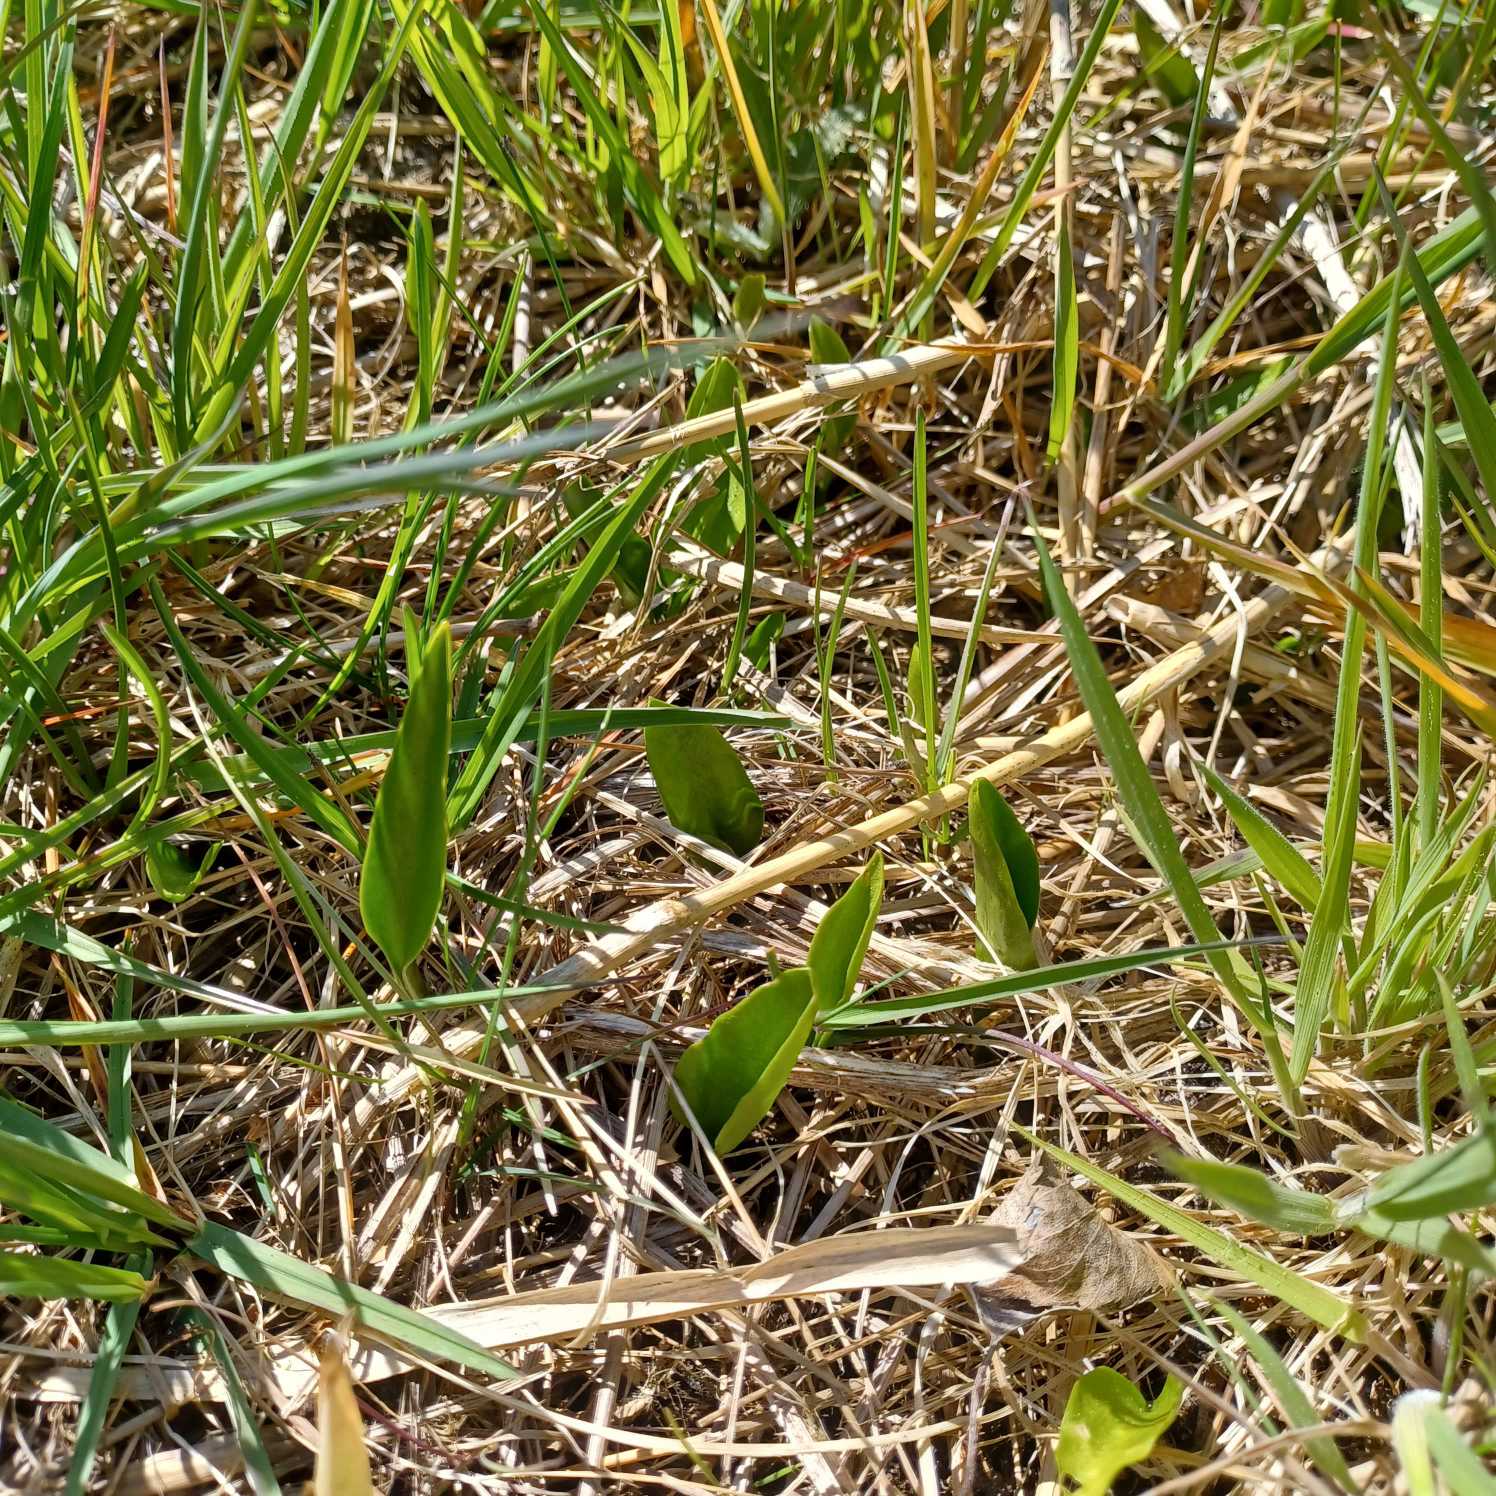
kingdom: Plantae
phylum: Tracheophyta
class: Polypodiopsida
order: Ophioglossales
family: Ophioglossaceae
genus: Ophioglossum
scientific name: Ophioglossum vulgatum
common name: Slangetunge
